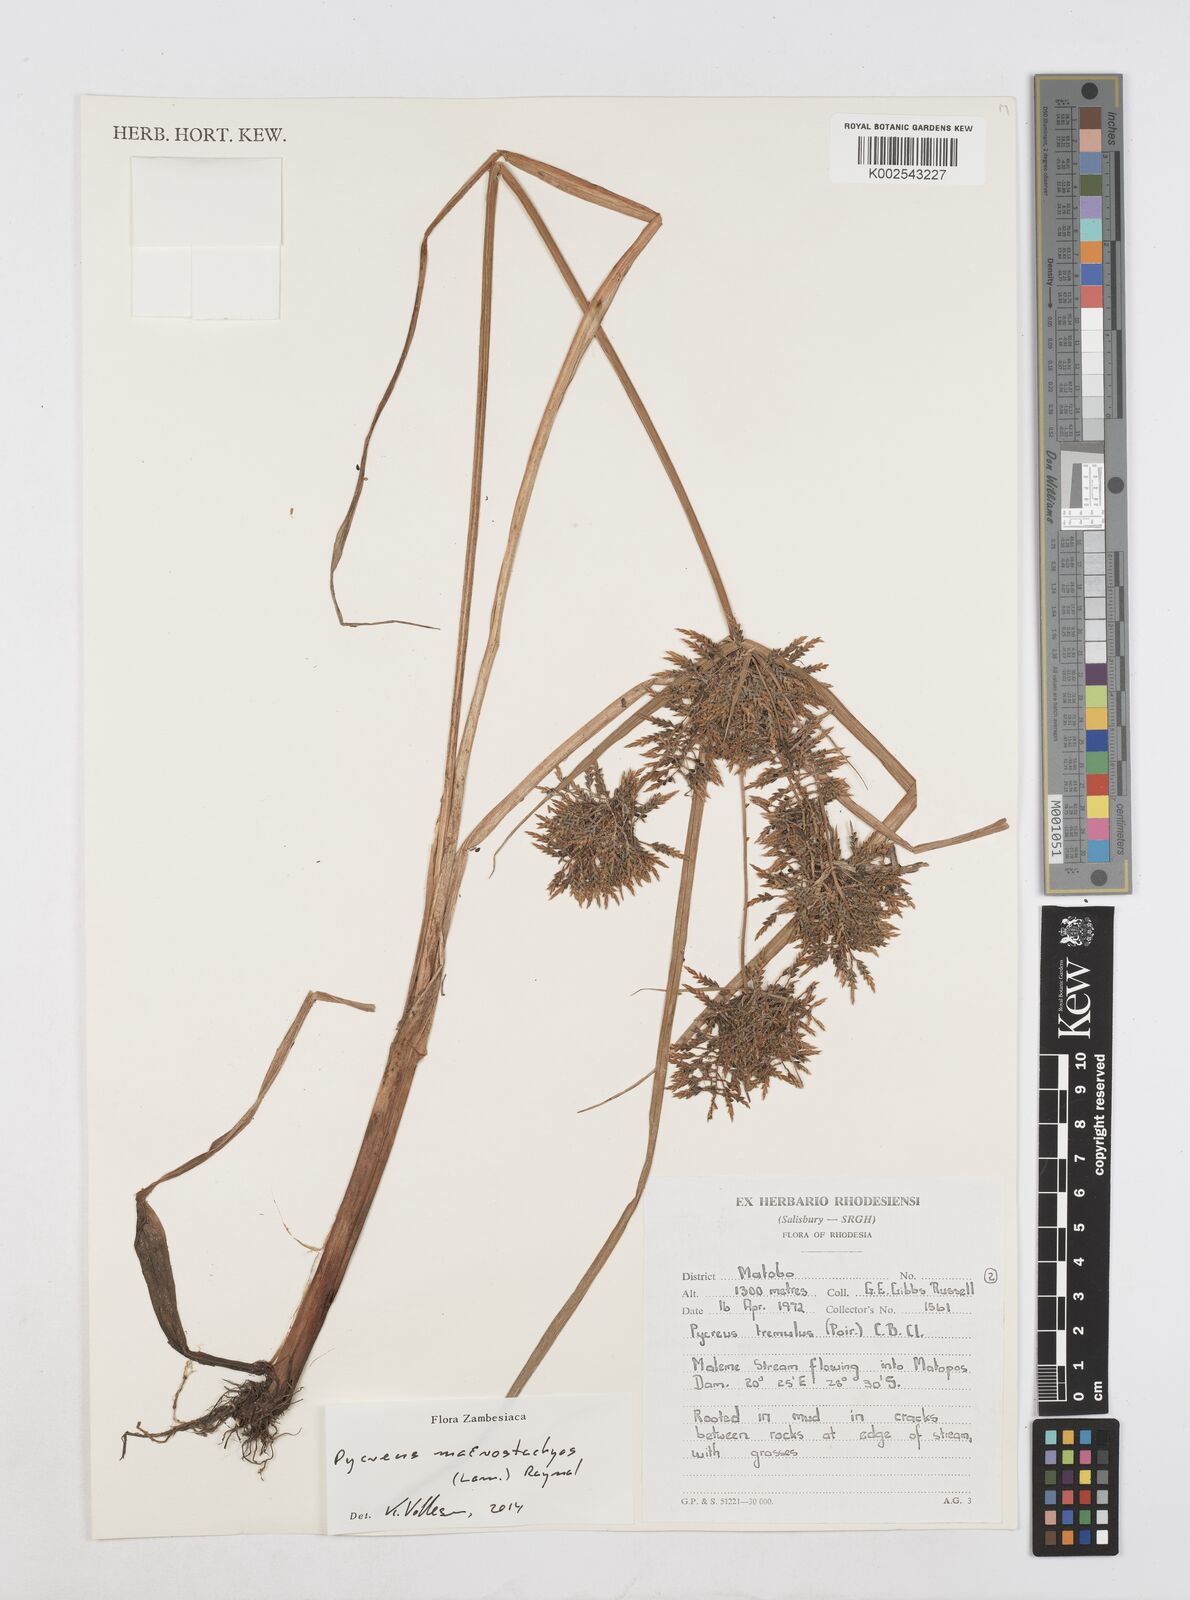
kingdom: Plantae
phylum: Tracheophyta
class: Liliopsida
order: Poales
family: Cyperaceae
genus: Cyperus
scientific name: Cyperus macrostachyos
